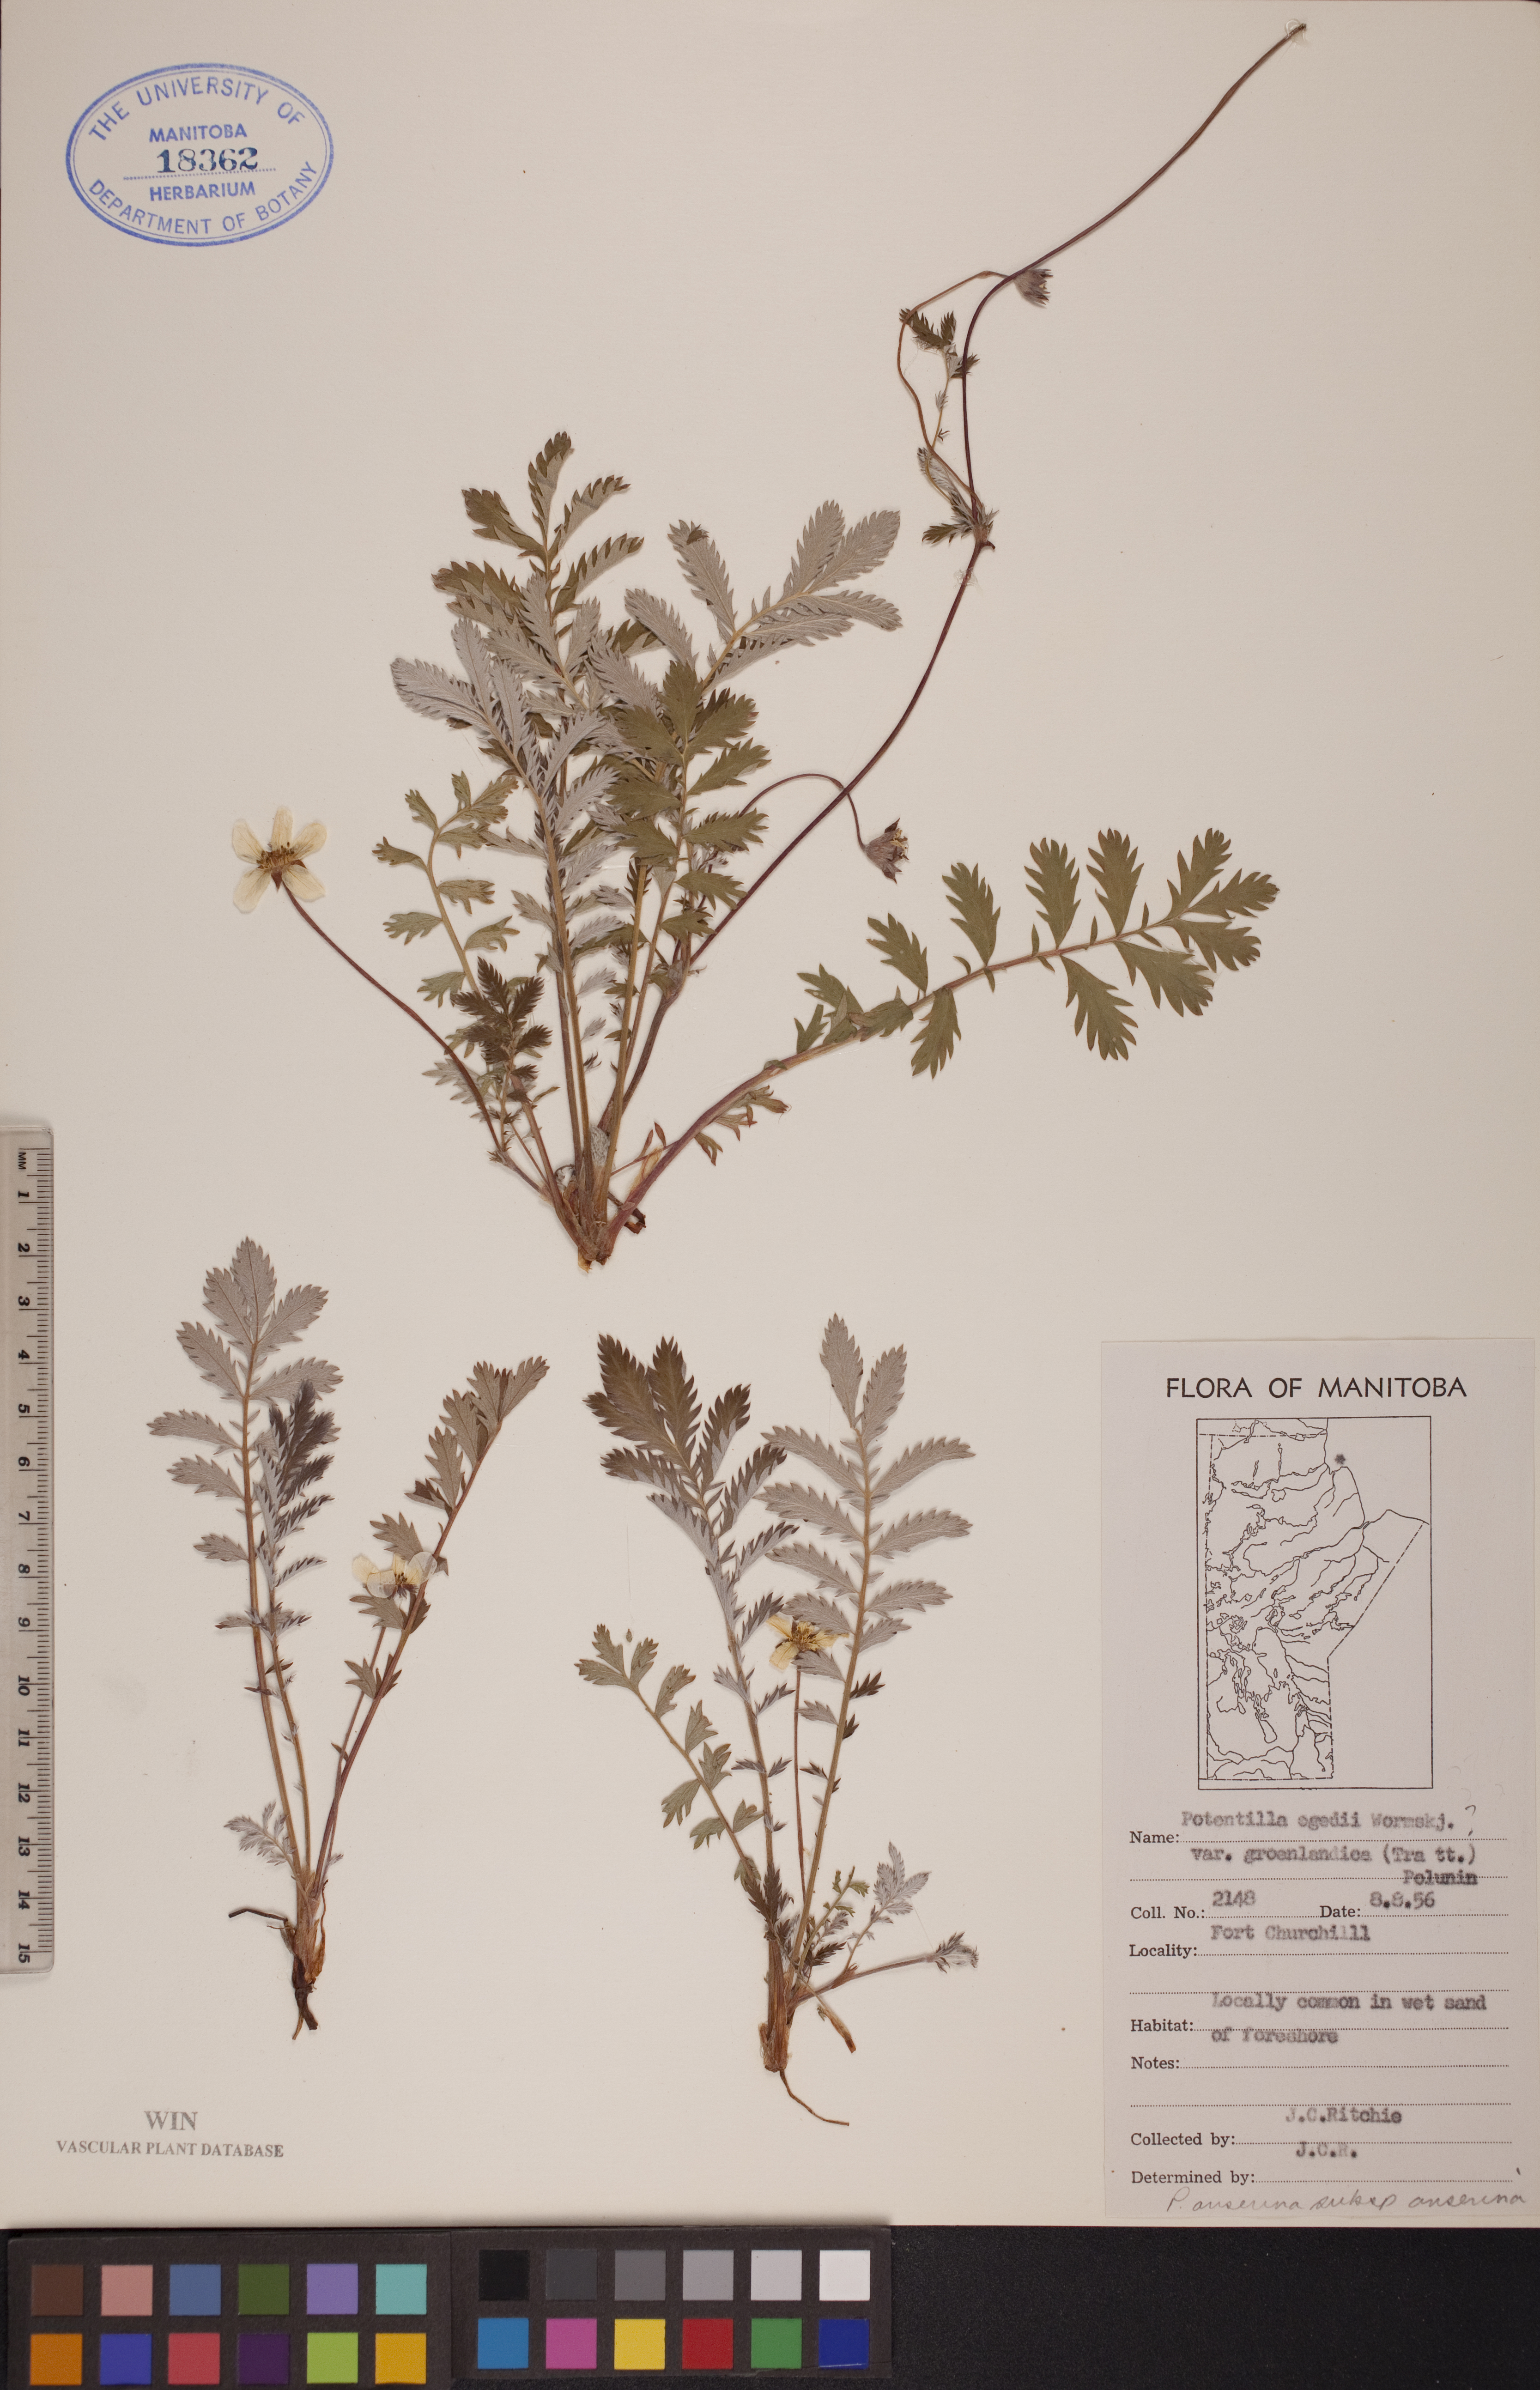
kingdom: Plantae
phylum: Tracheophyta
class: Magnoliopsida
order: Rosales
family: Rosaceae
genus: Argentina
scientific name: Argentina anserina
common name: Common silverweed
